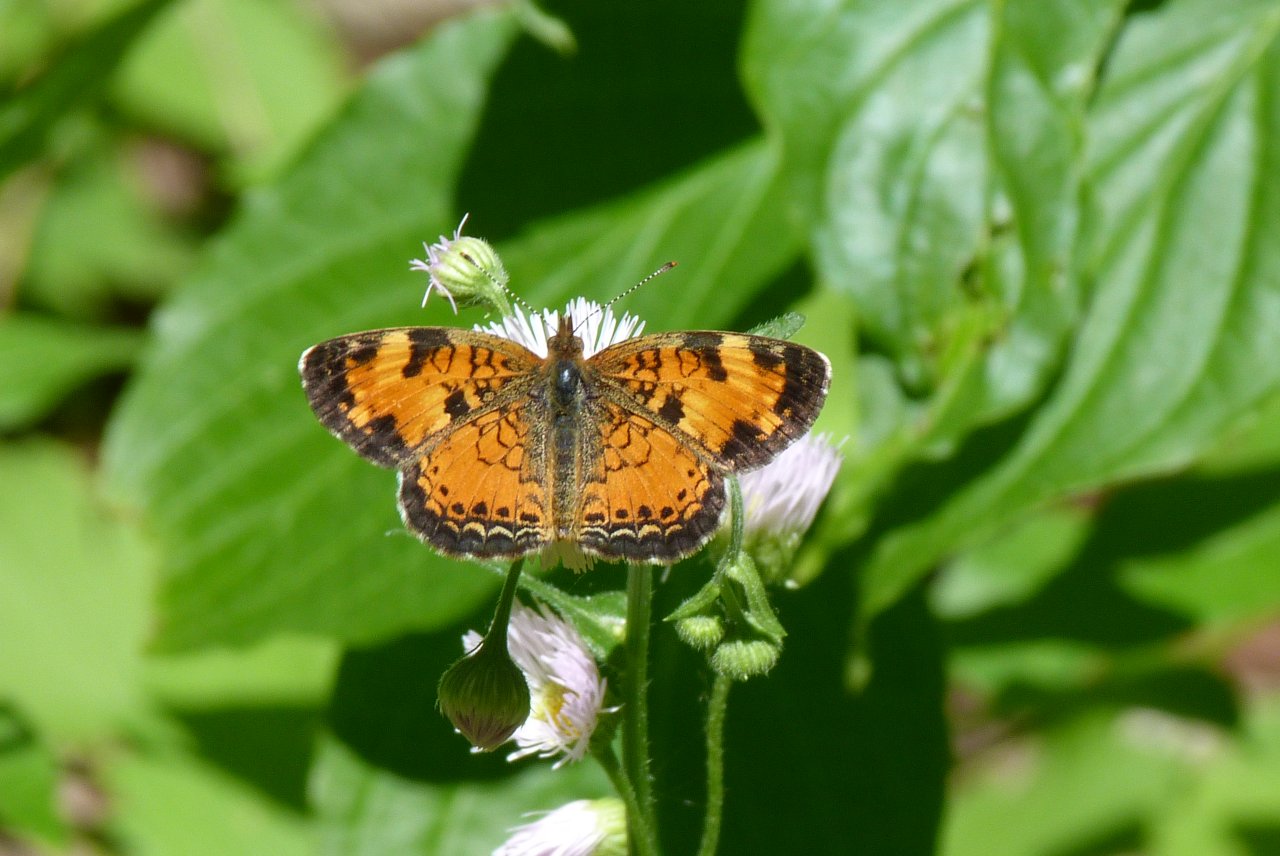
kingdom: Animalia
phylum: Arthropoda
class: Insecta
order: Lepidoptera
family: Nymphalidae
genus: Phyciodes
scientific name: Phyciodes tharos
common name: Northern Crescent
